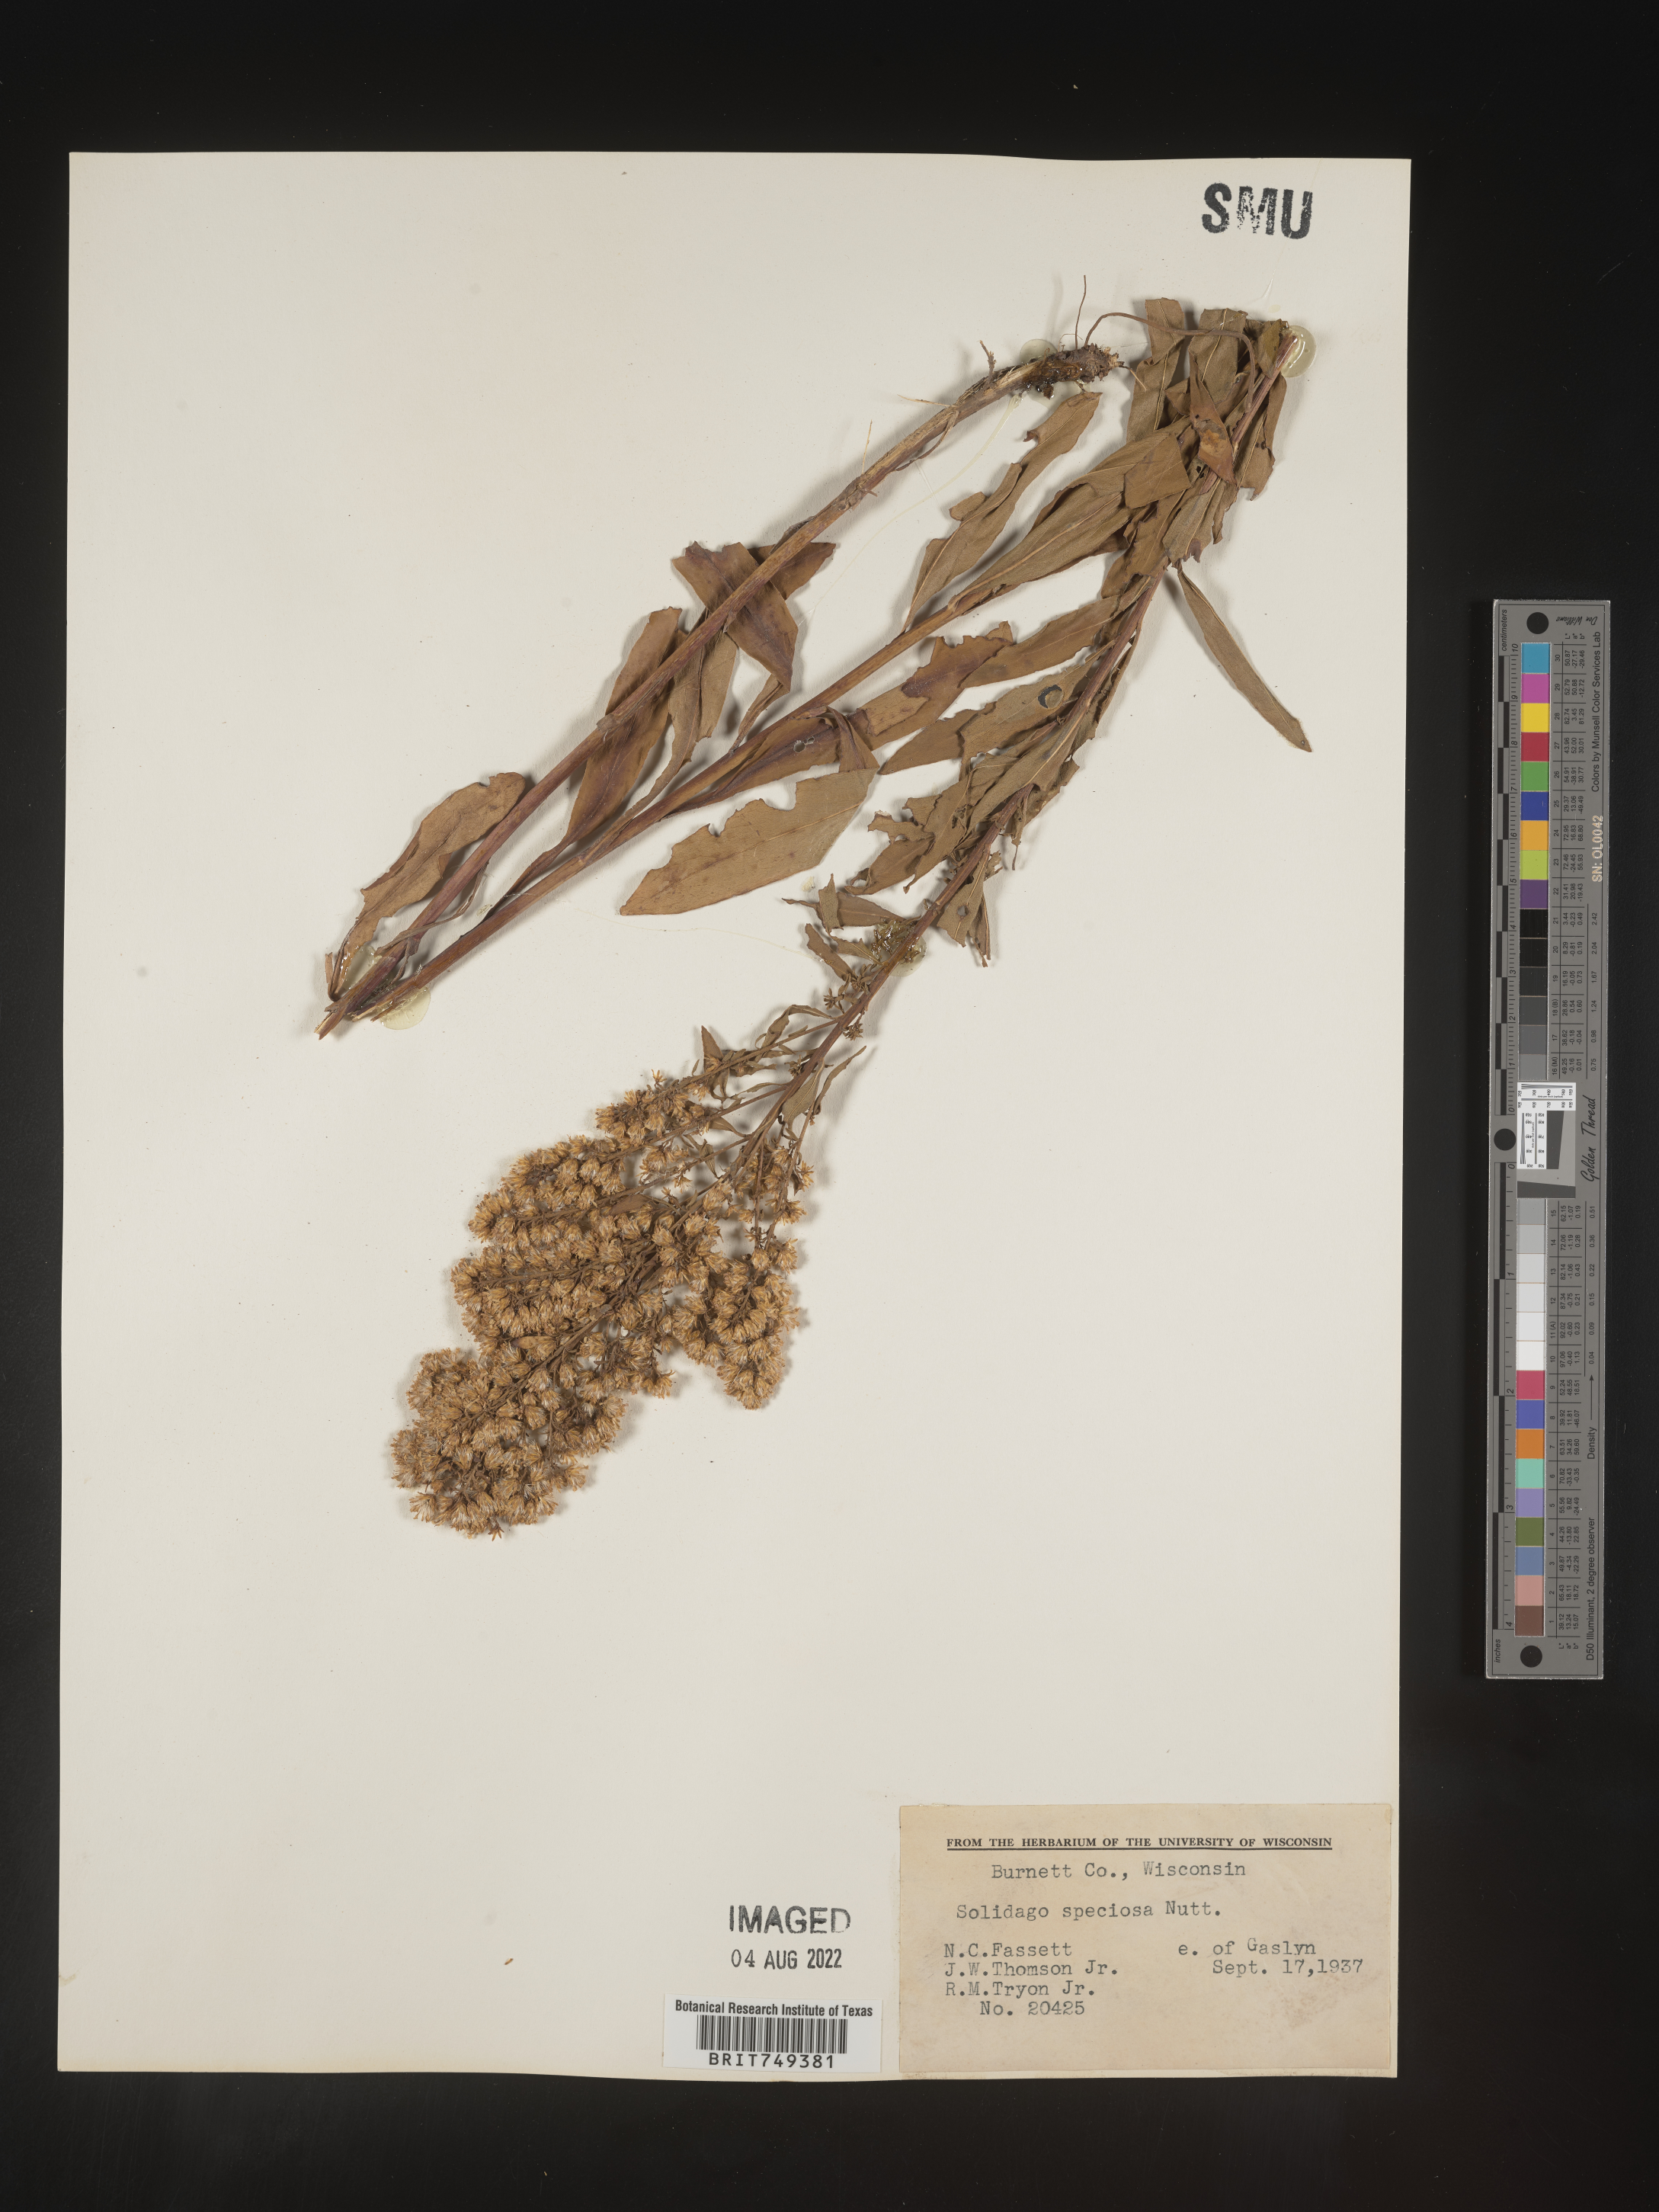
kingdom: Plantae
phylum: Tracheophyta
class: Magnoliopsida
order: Asterales
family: Asteraceae
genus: Solidago
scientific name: Solidago speciosa
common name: Showy goldenrod
